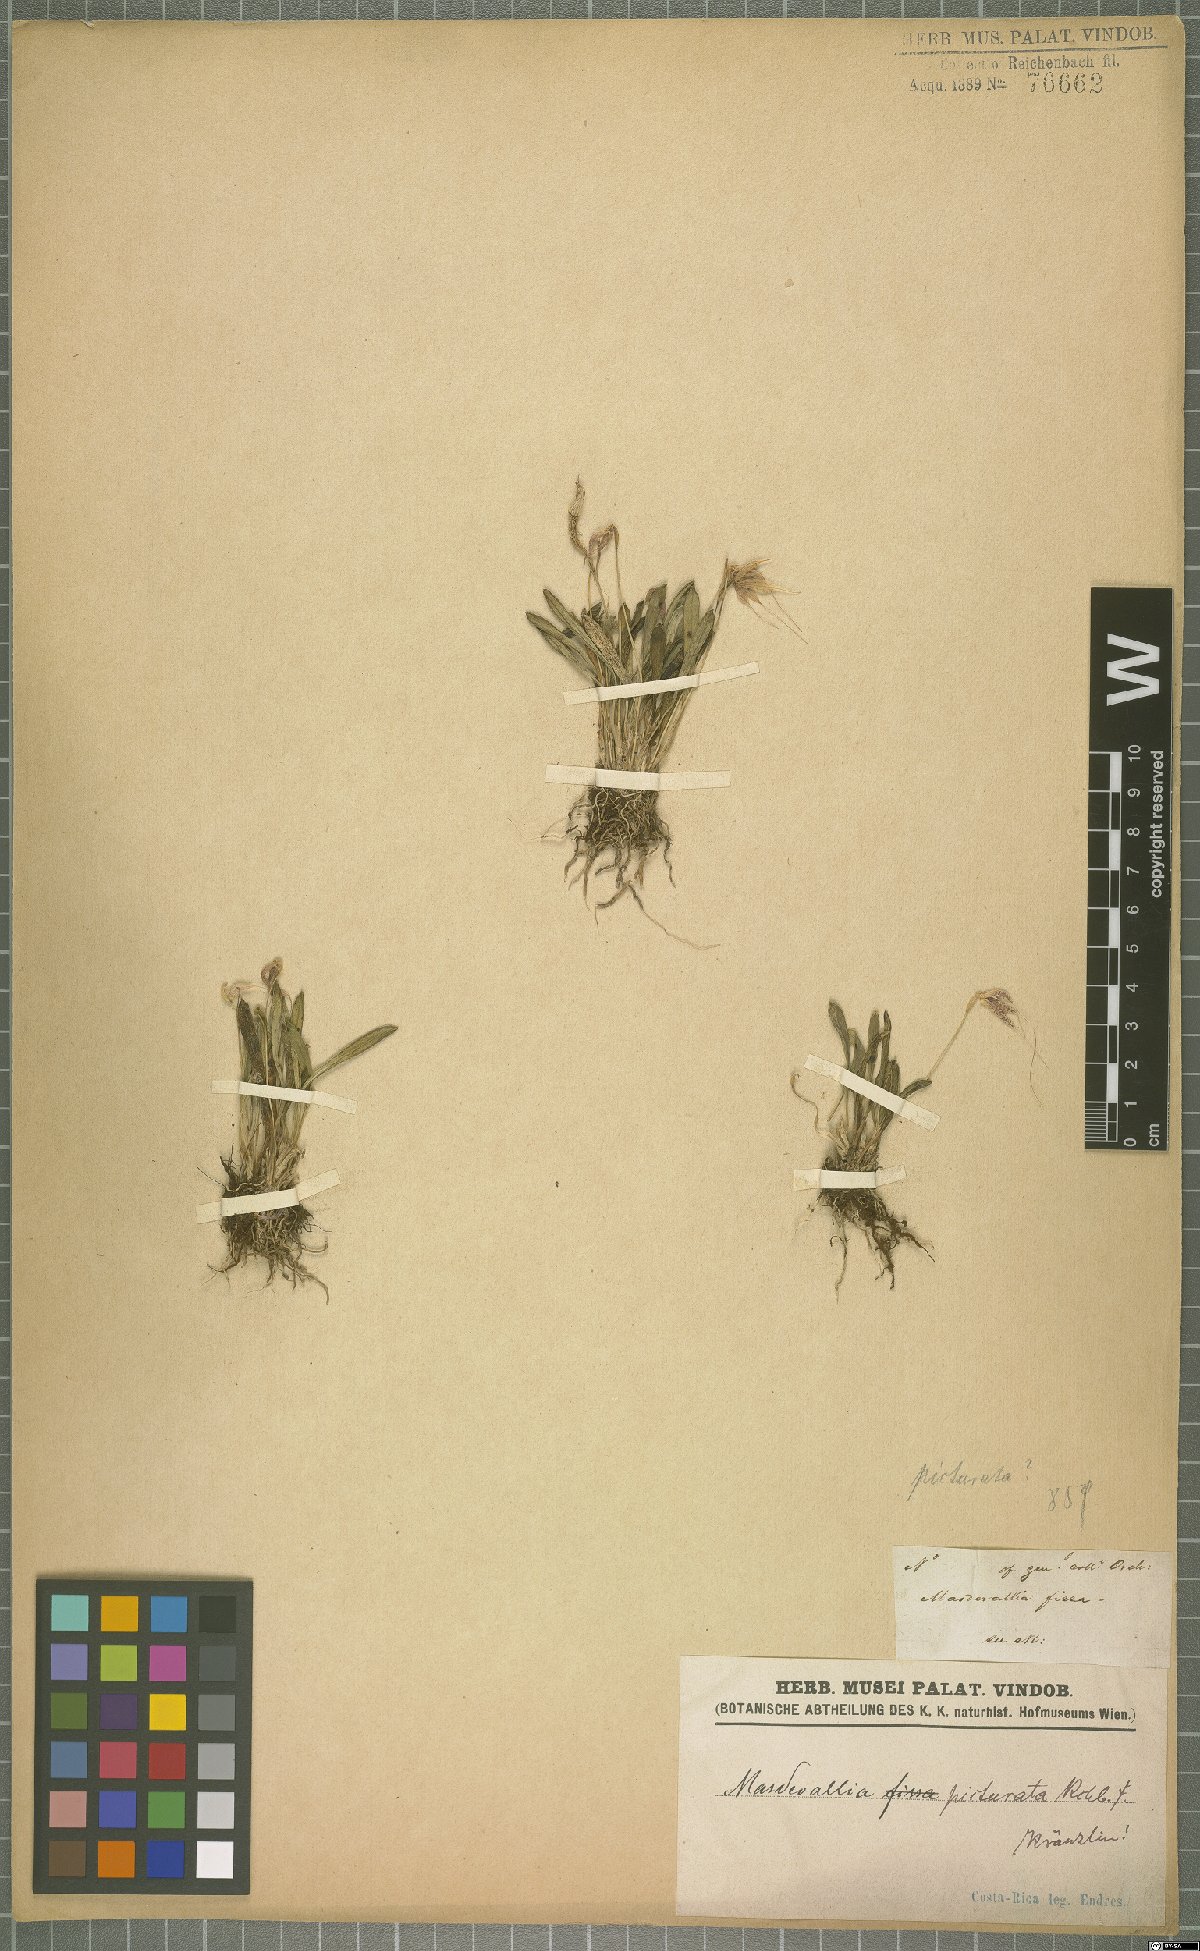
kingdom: Plantae
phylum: Tracheophyta
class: Liliopsida
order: Asparagales
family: Orchidaceae
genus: Masdevallia
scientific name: Masdevallia picturata
